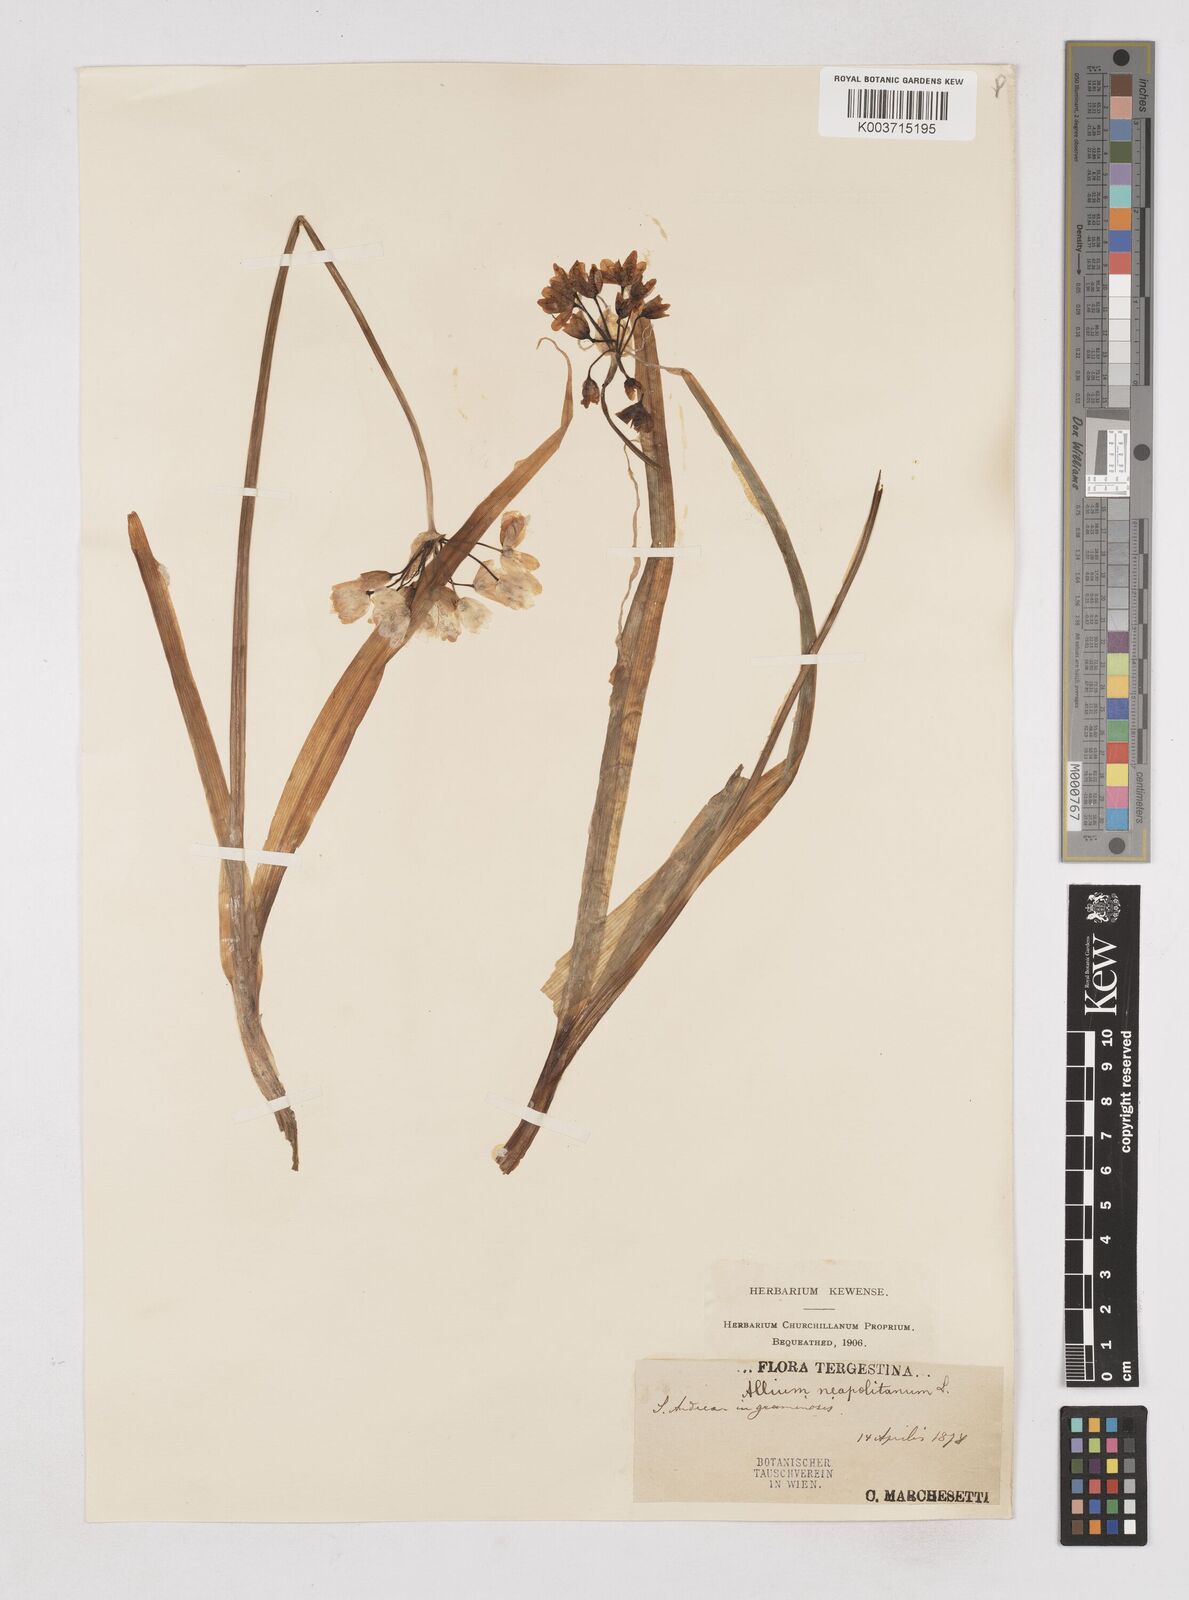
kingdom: Plantae
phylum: Tracheophyta
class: Liliopsida
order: Asparagales
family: Amaryllidaceae
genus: Allium
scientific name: Allium neapolitanum
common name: Neapolitan garlic
